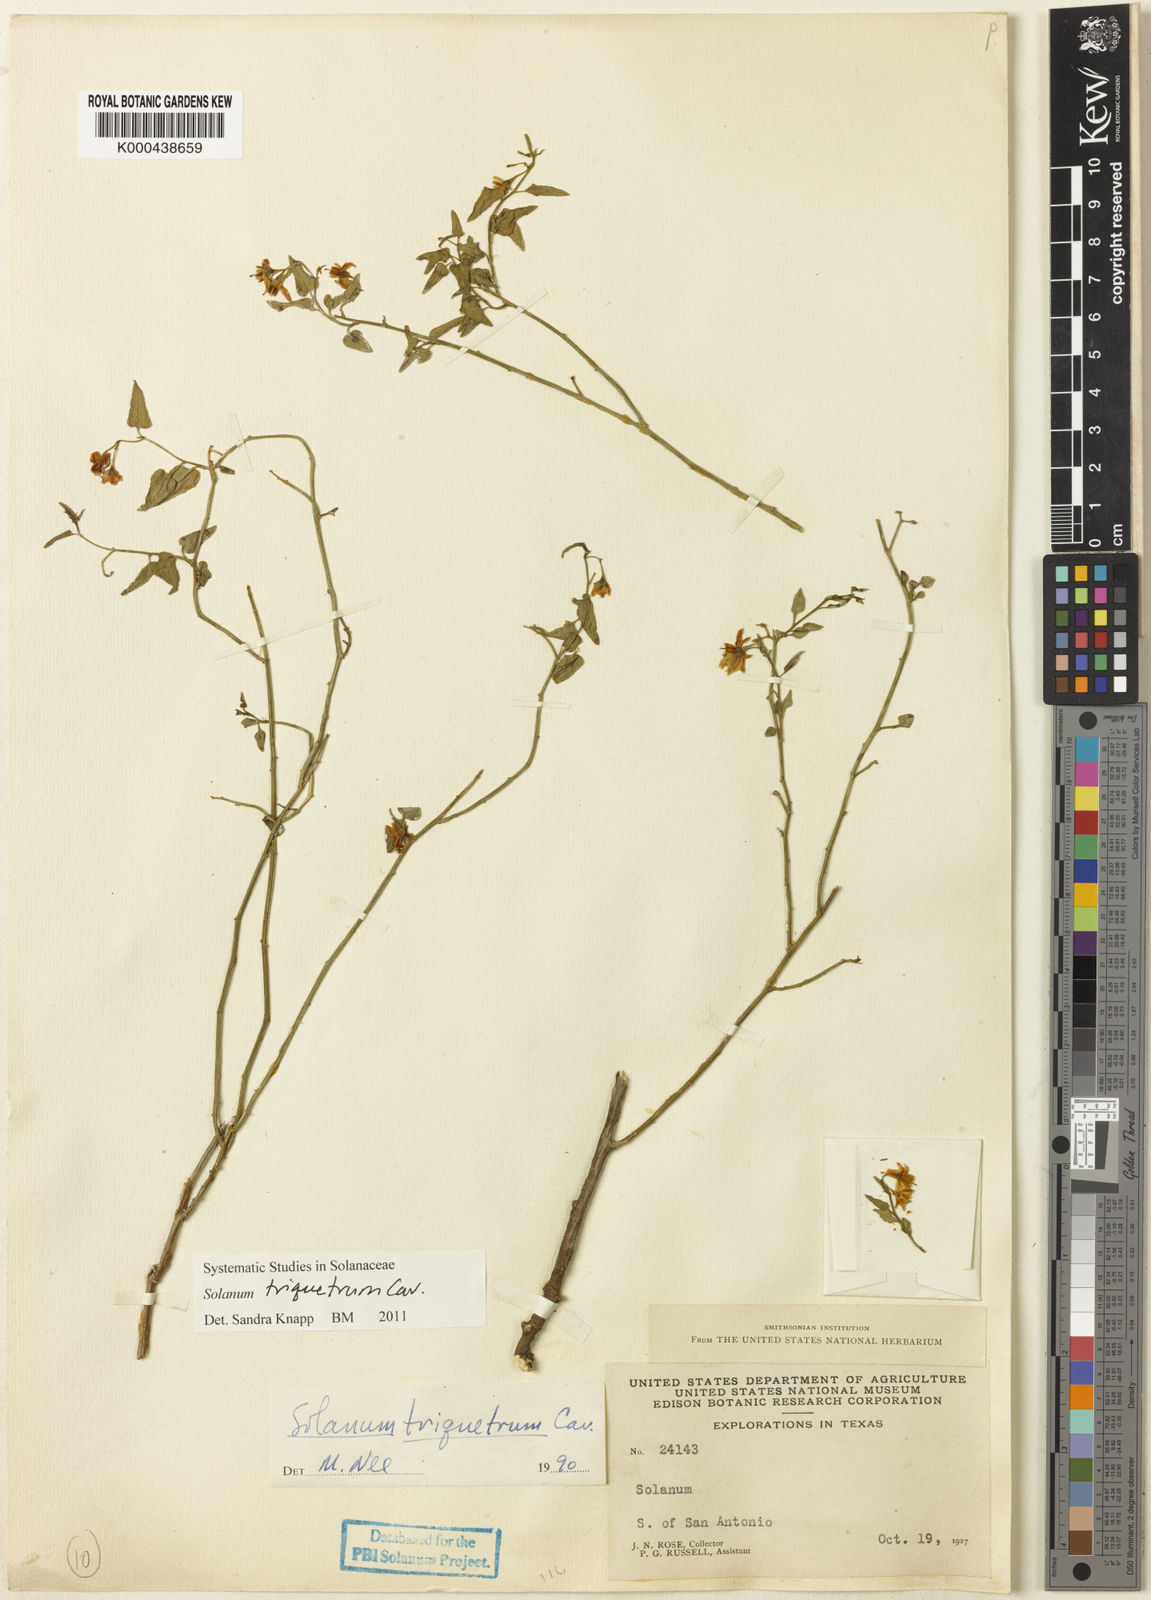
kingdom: Plantae
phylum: Tracheophyta
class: Magnoliopsida
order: Solanales
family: Solanaceae
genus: Solanum
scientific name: Solanum triquetrum
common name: Texas nightshade
